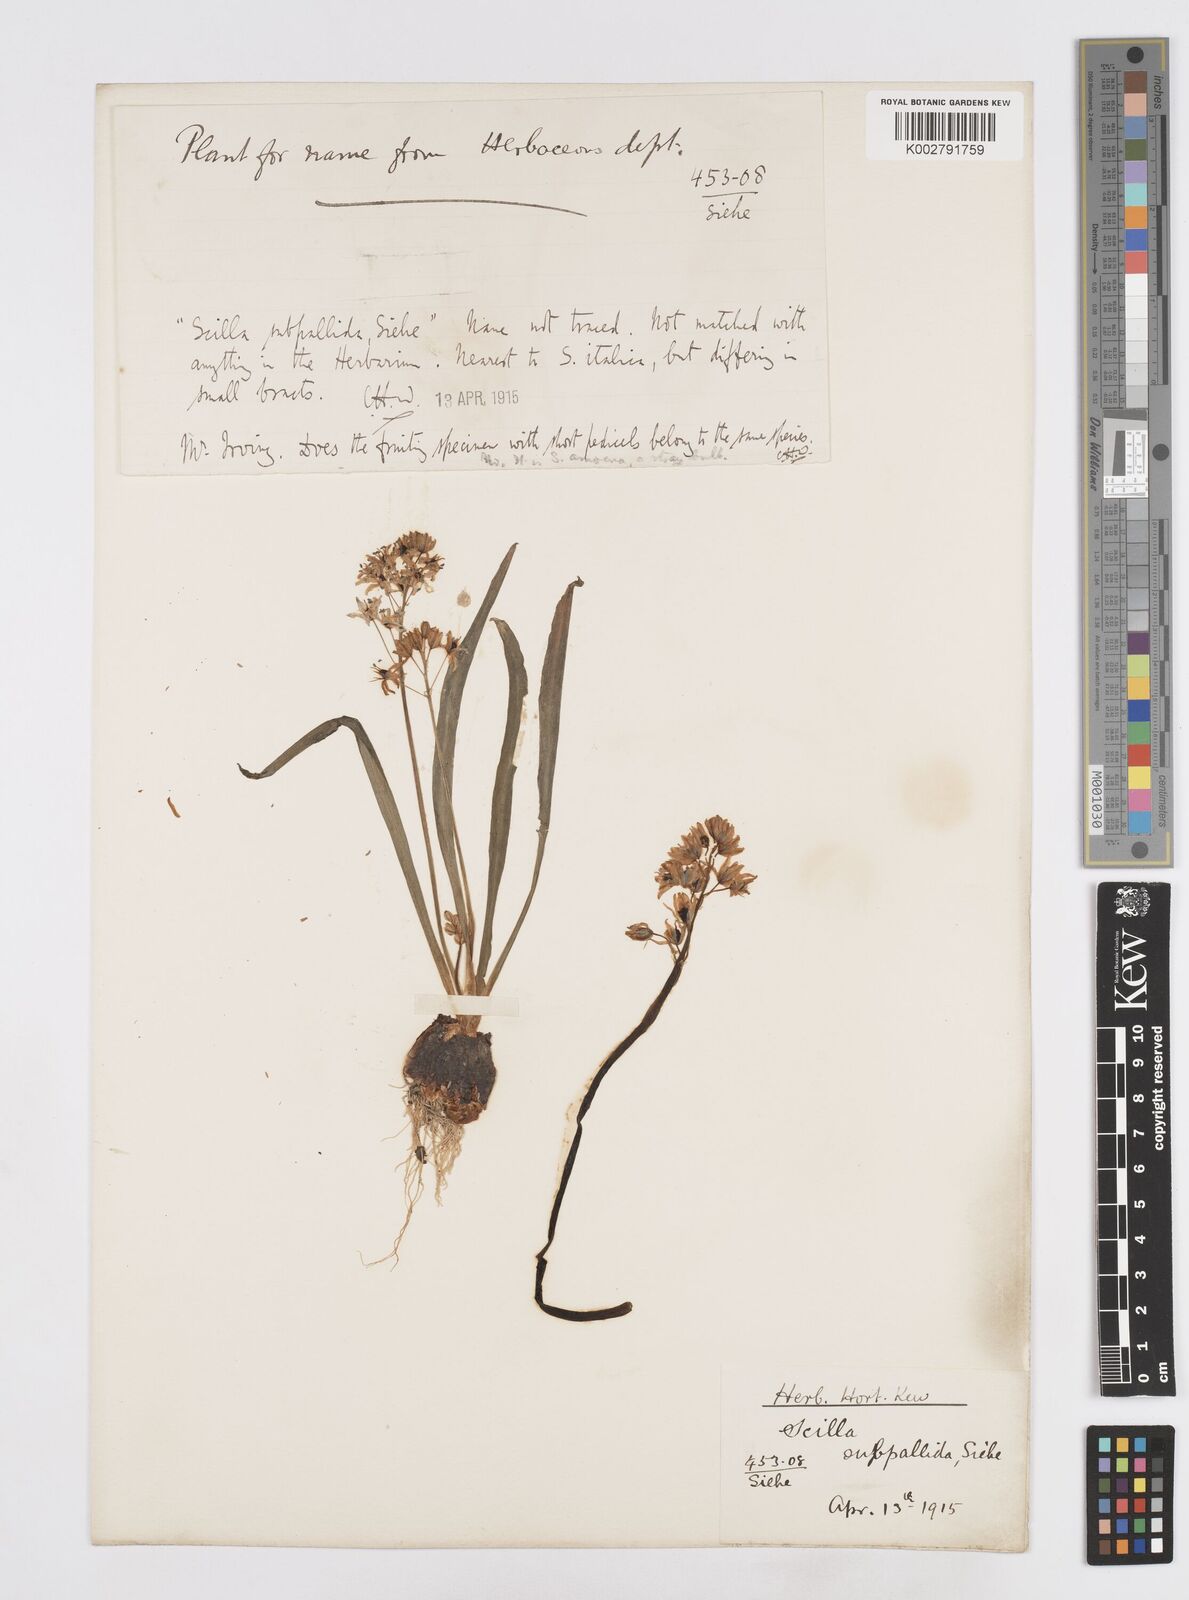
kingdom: Plantae
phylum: Tracheophyta
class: Liliopsida
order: Asparagales
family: Asparagaceae
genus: Scilla
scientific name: Scilla
